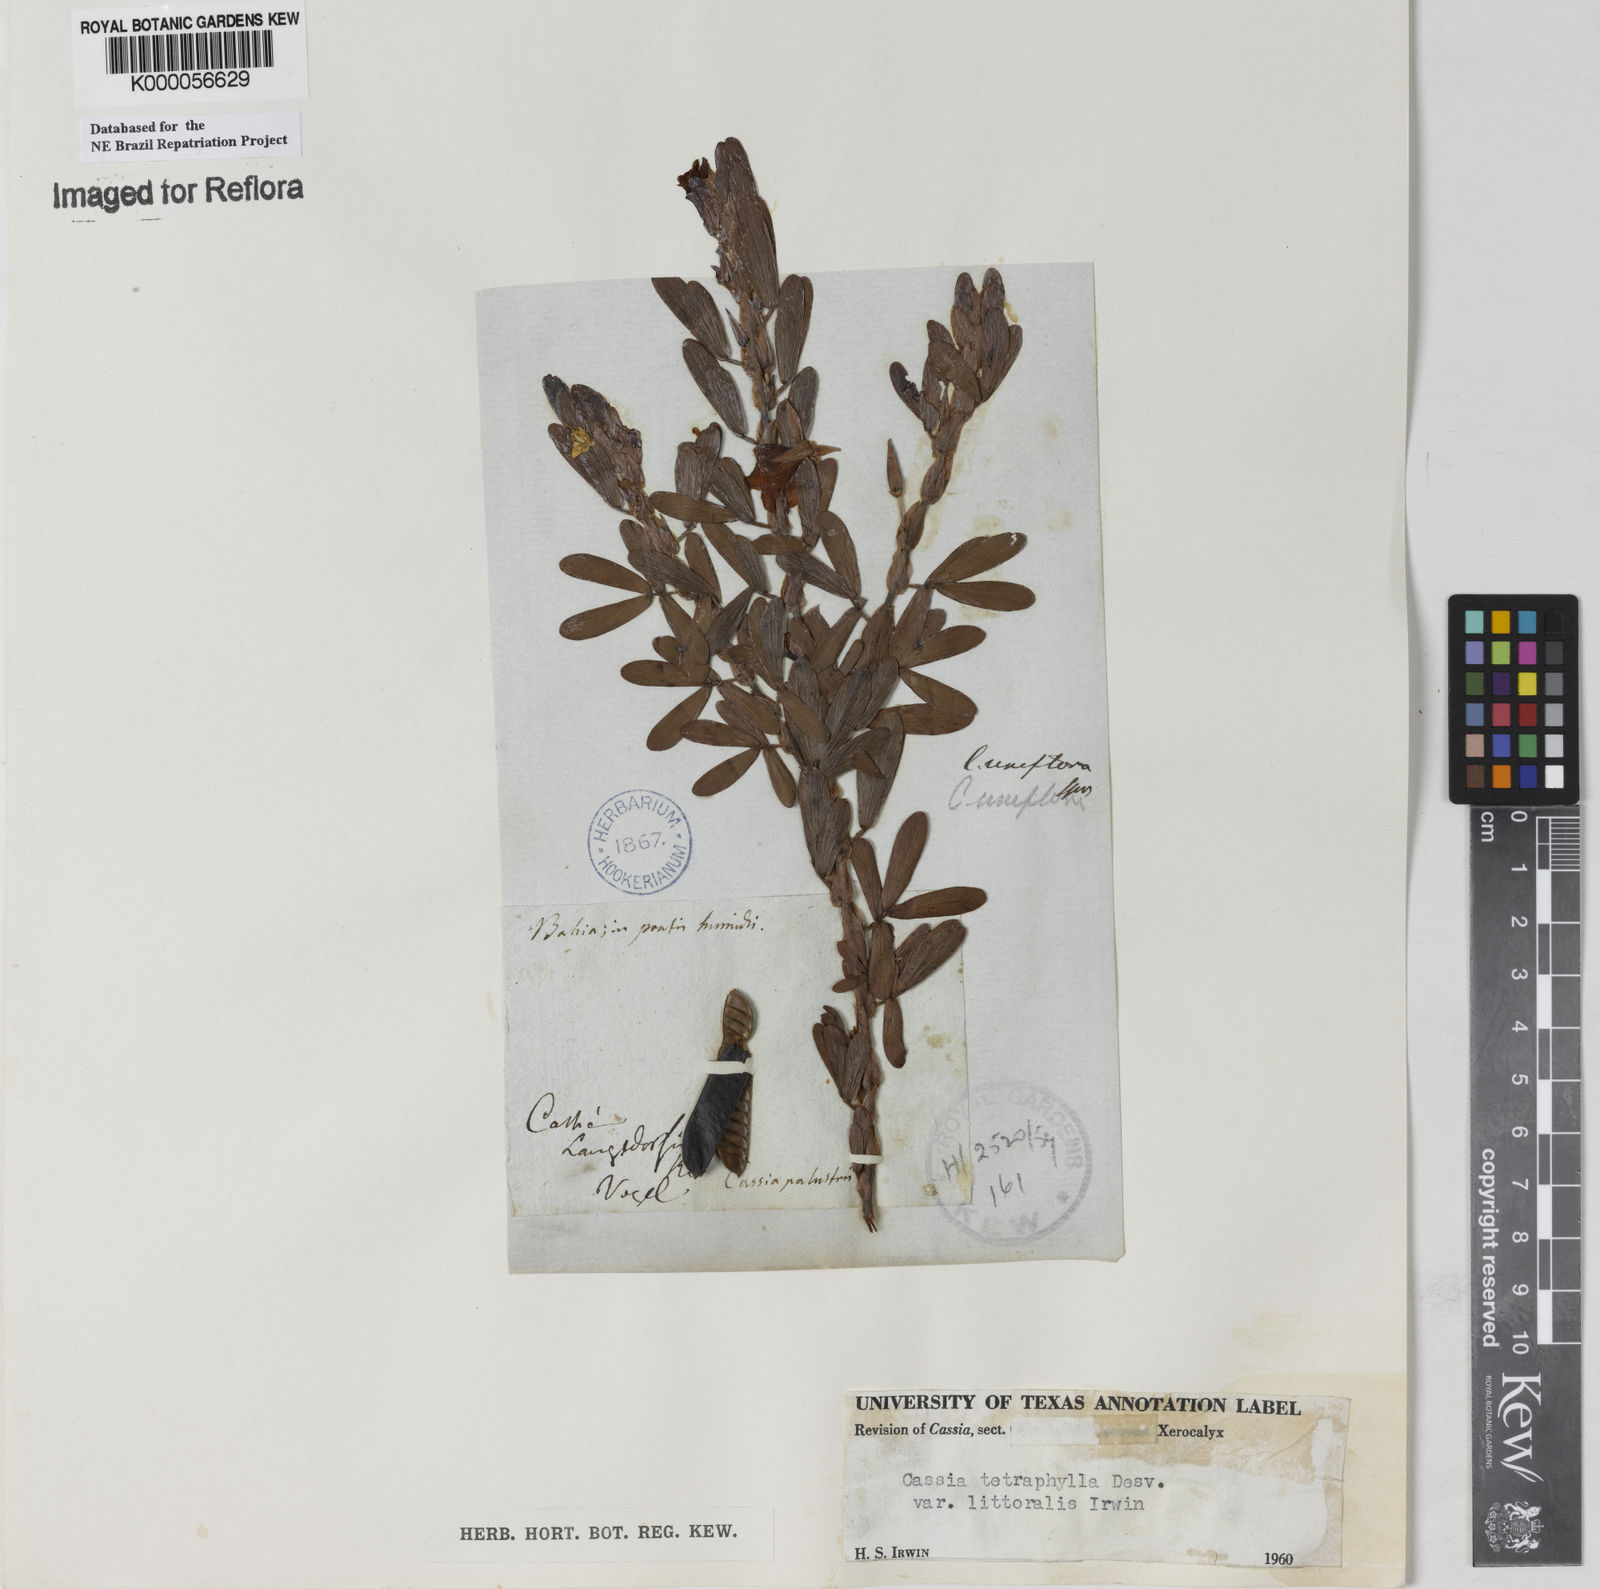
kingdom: Plantae
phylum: Tracheophyta
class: Magnoliopsida
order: Fabales
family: Fabaceae
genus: Chamaecrista
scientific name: Chamaecrista desvauxii
